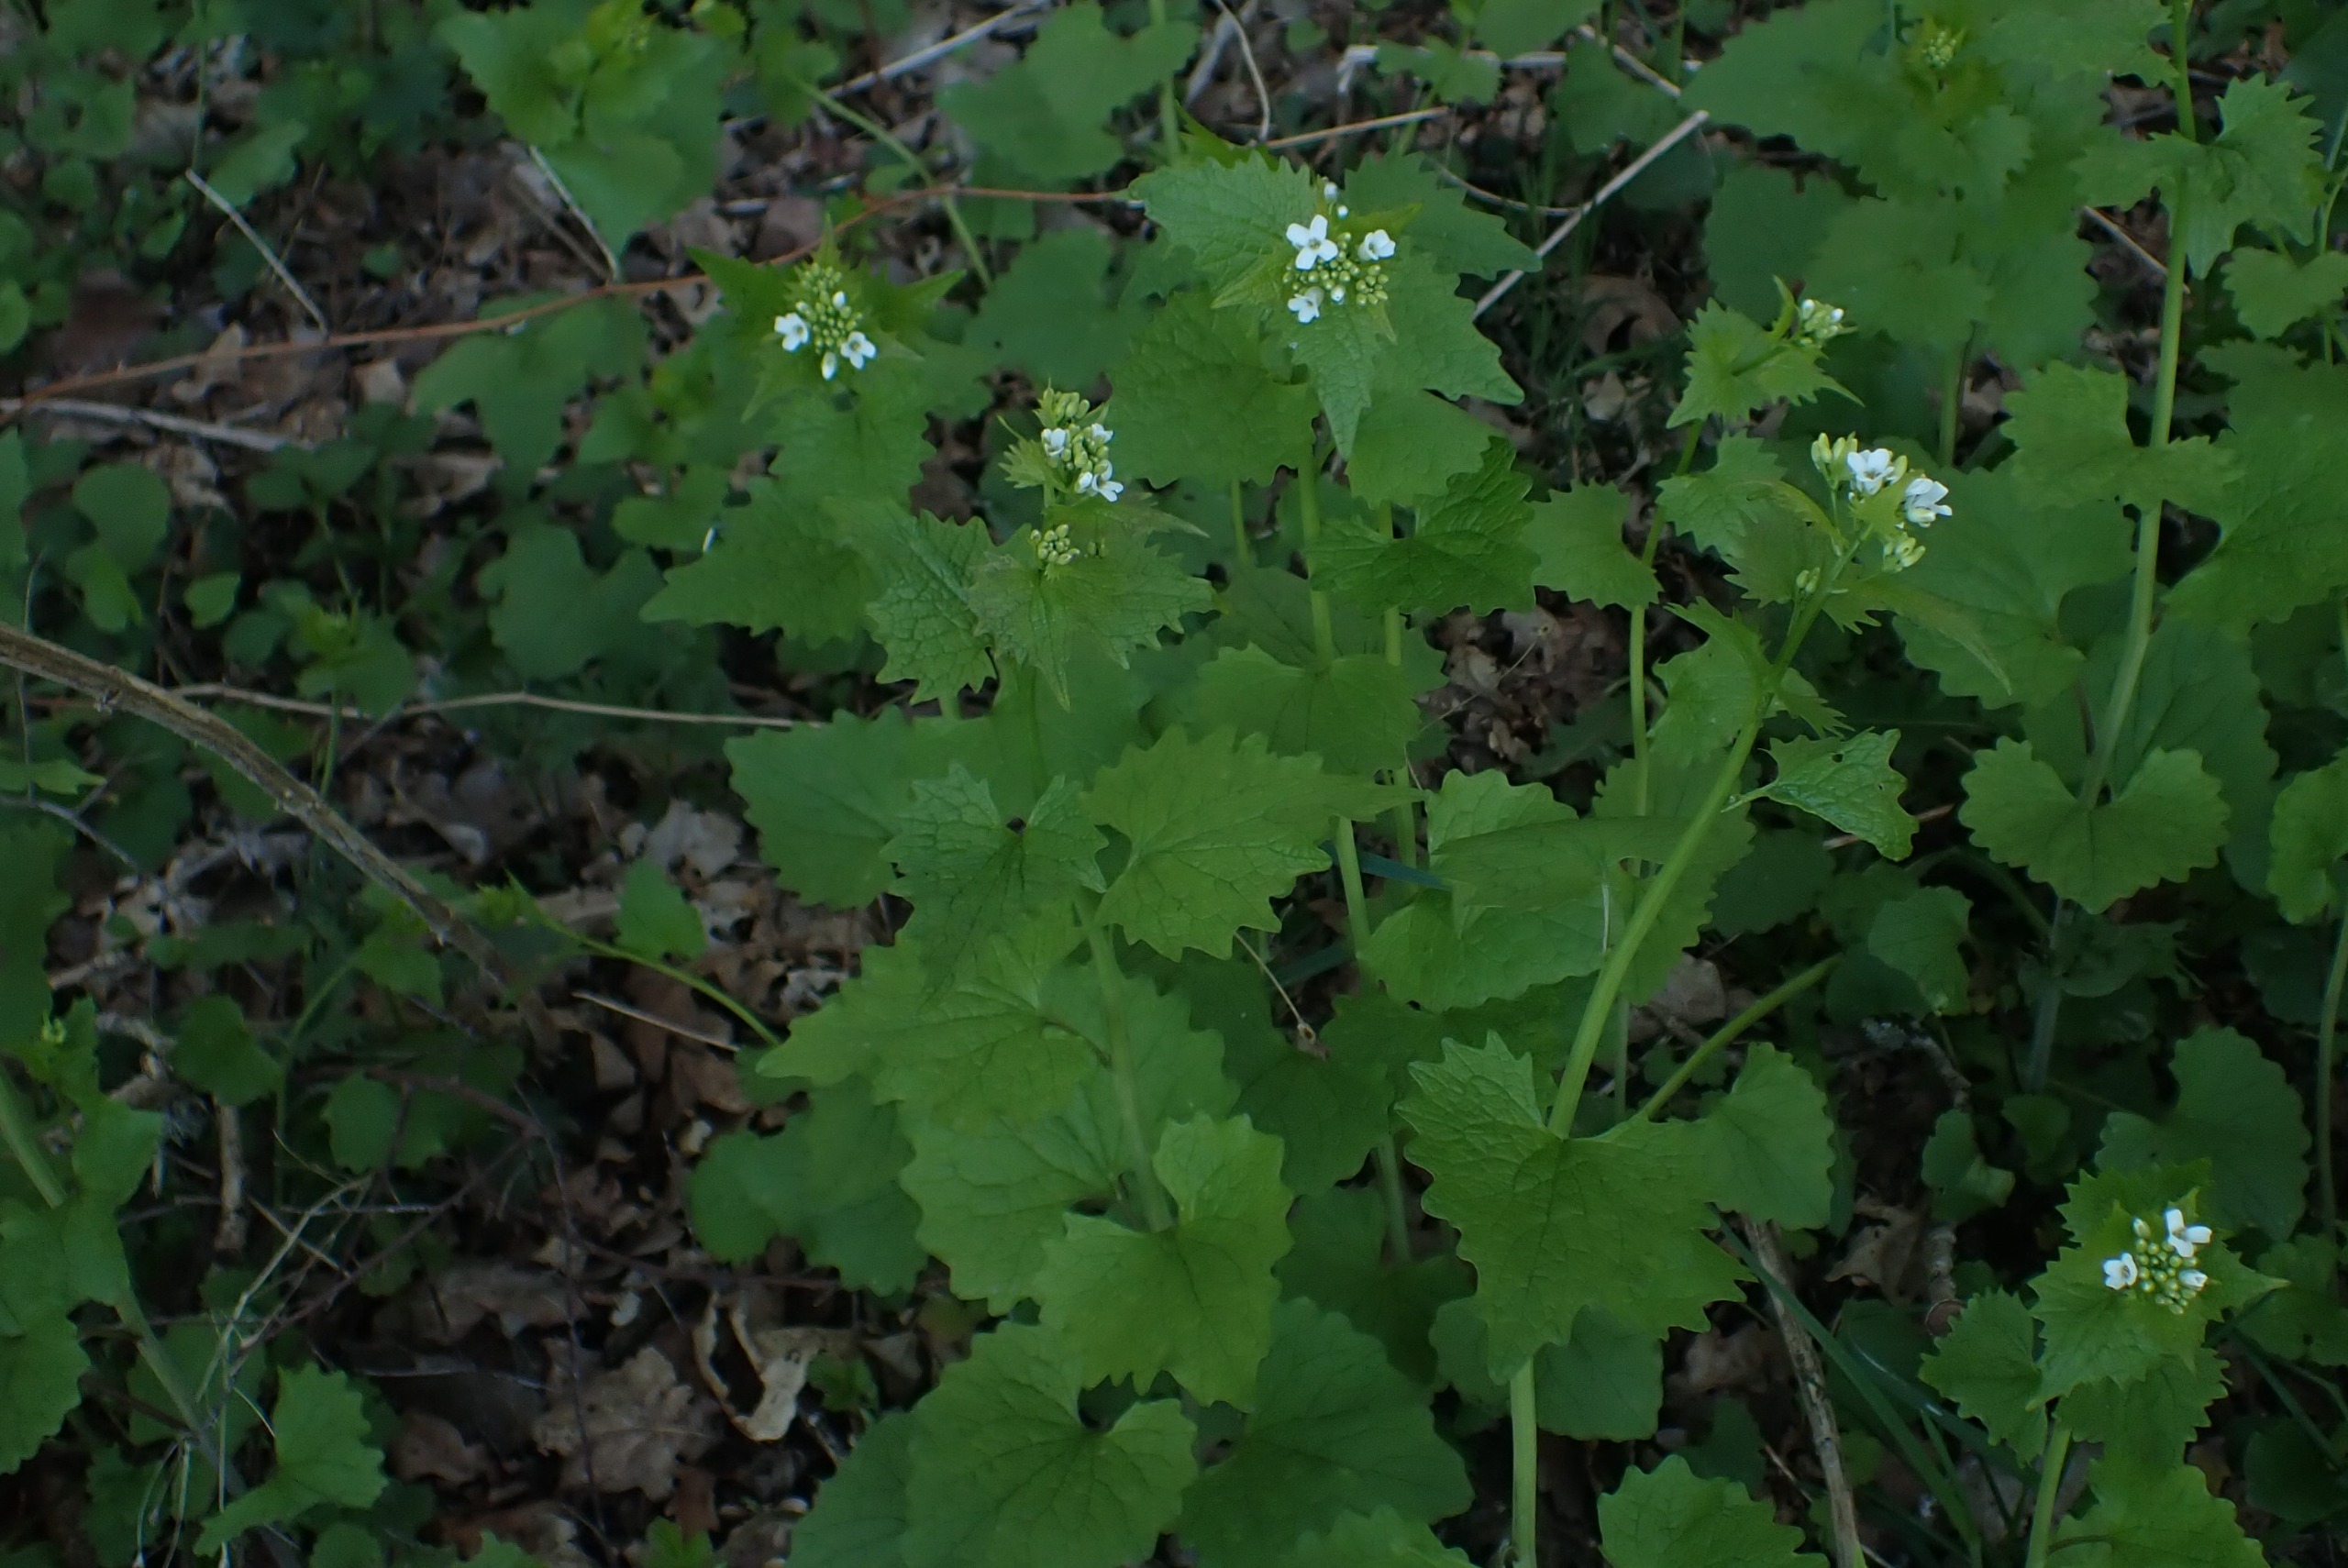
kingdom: Plantae
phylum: Tracheophyta
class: Magnoliopsida
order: Brassicales
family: Brassicaceae
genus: Alliaria
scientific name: Alliaria petiolata
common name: Løgkarse
